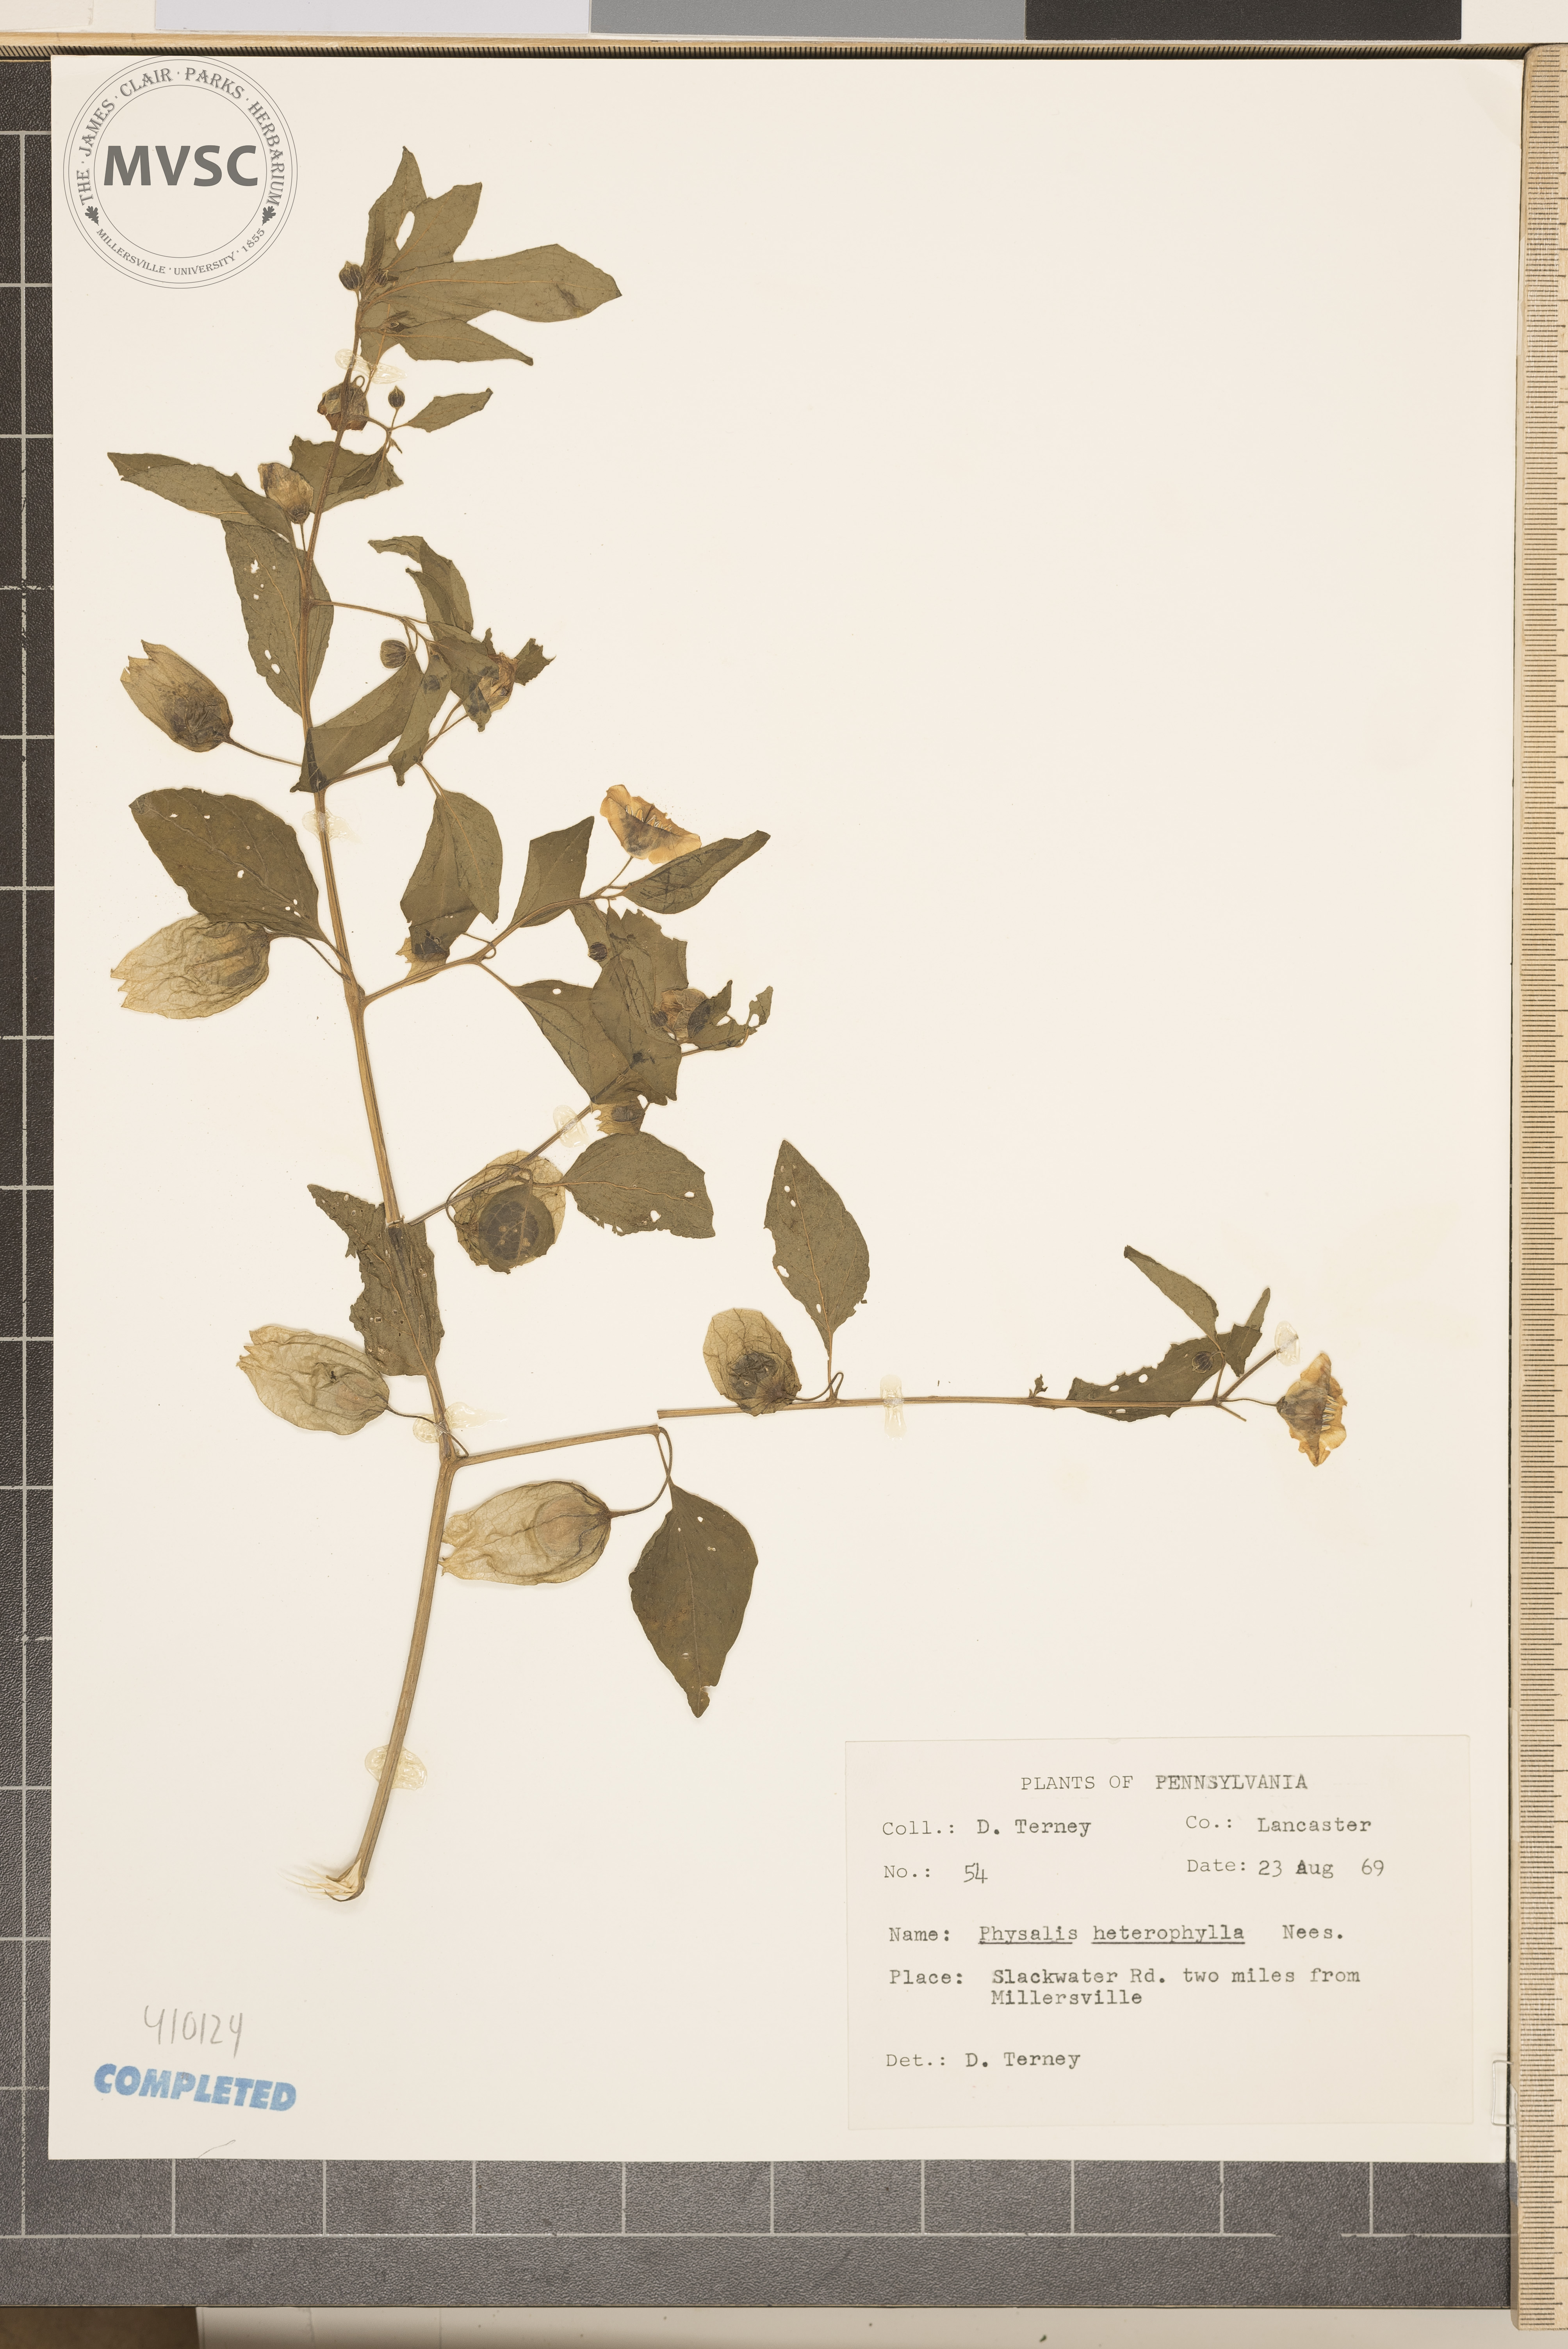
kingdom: Plantae
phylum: Tracheophyta
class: Magnoliopsida
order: Solanales
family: Solanaceae
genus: Physalis
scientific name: Physalis heterophylla
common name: Clammy ground-cherry
